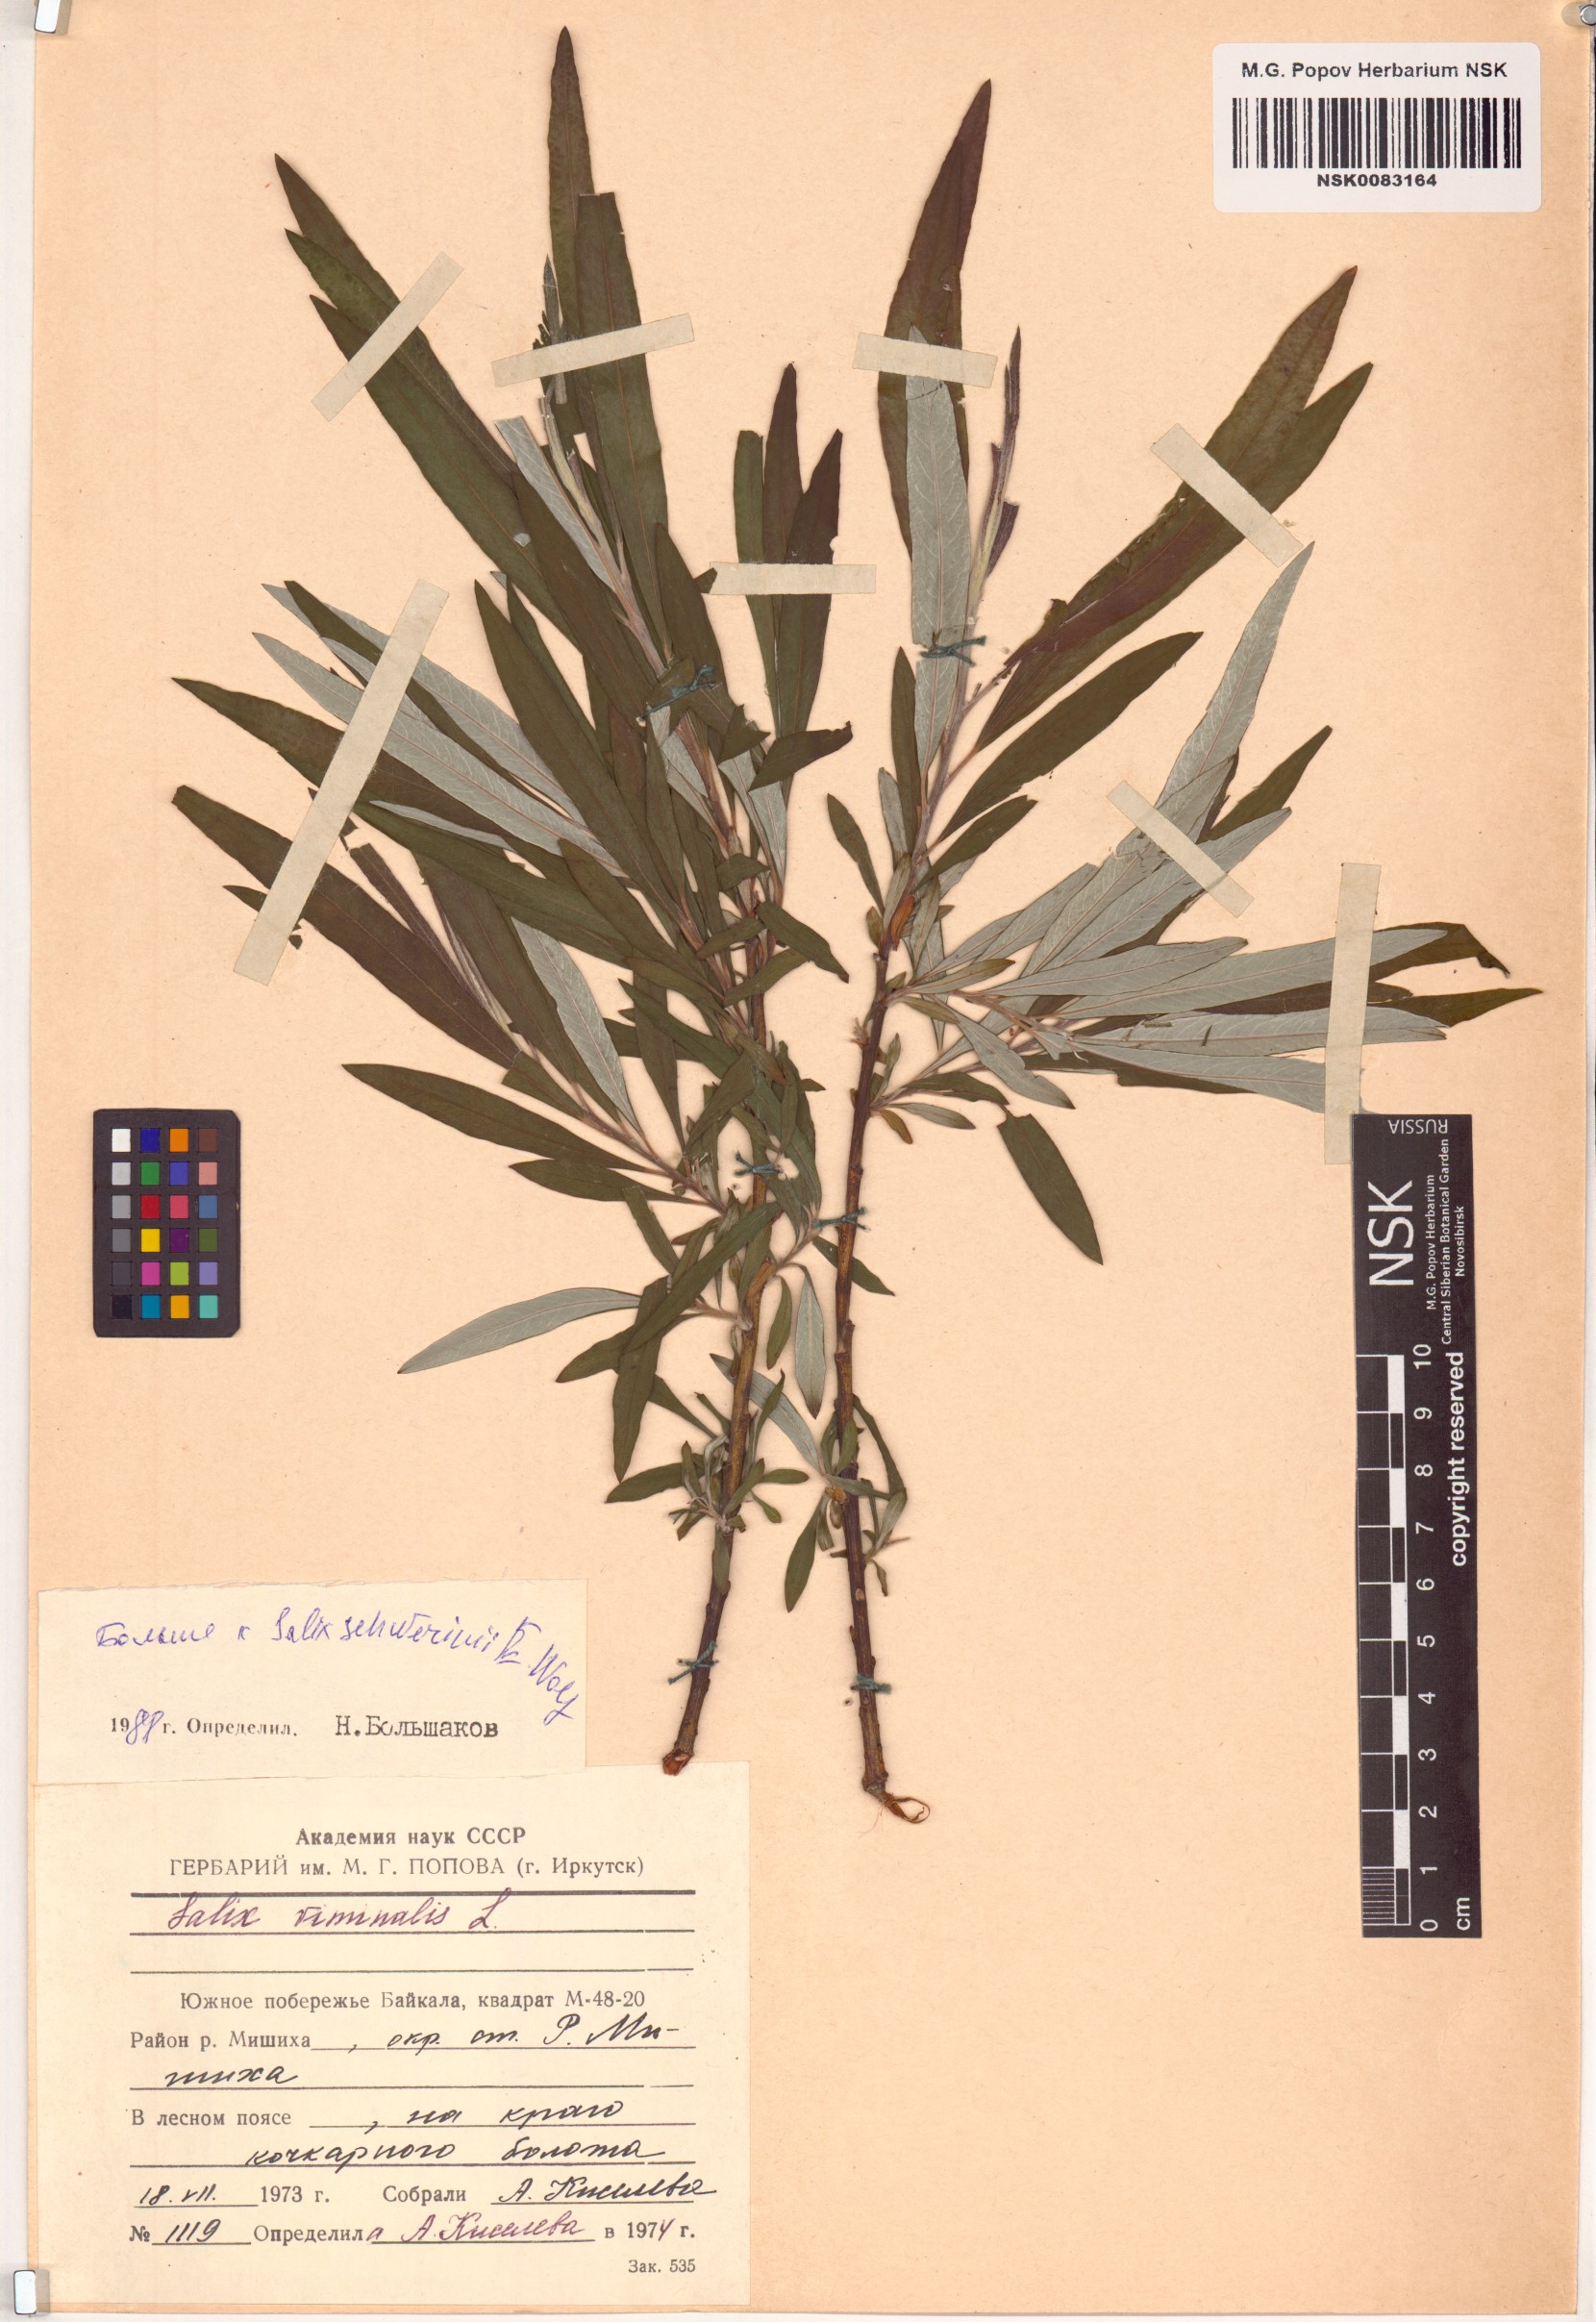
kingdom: Plantae
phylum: Tracheophyta
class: Magnoliopsida
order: Malpighiales
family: Salicaceae
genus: Salix
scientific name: Salix schwerinii
